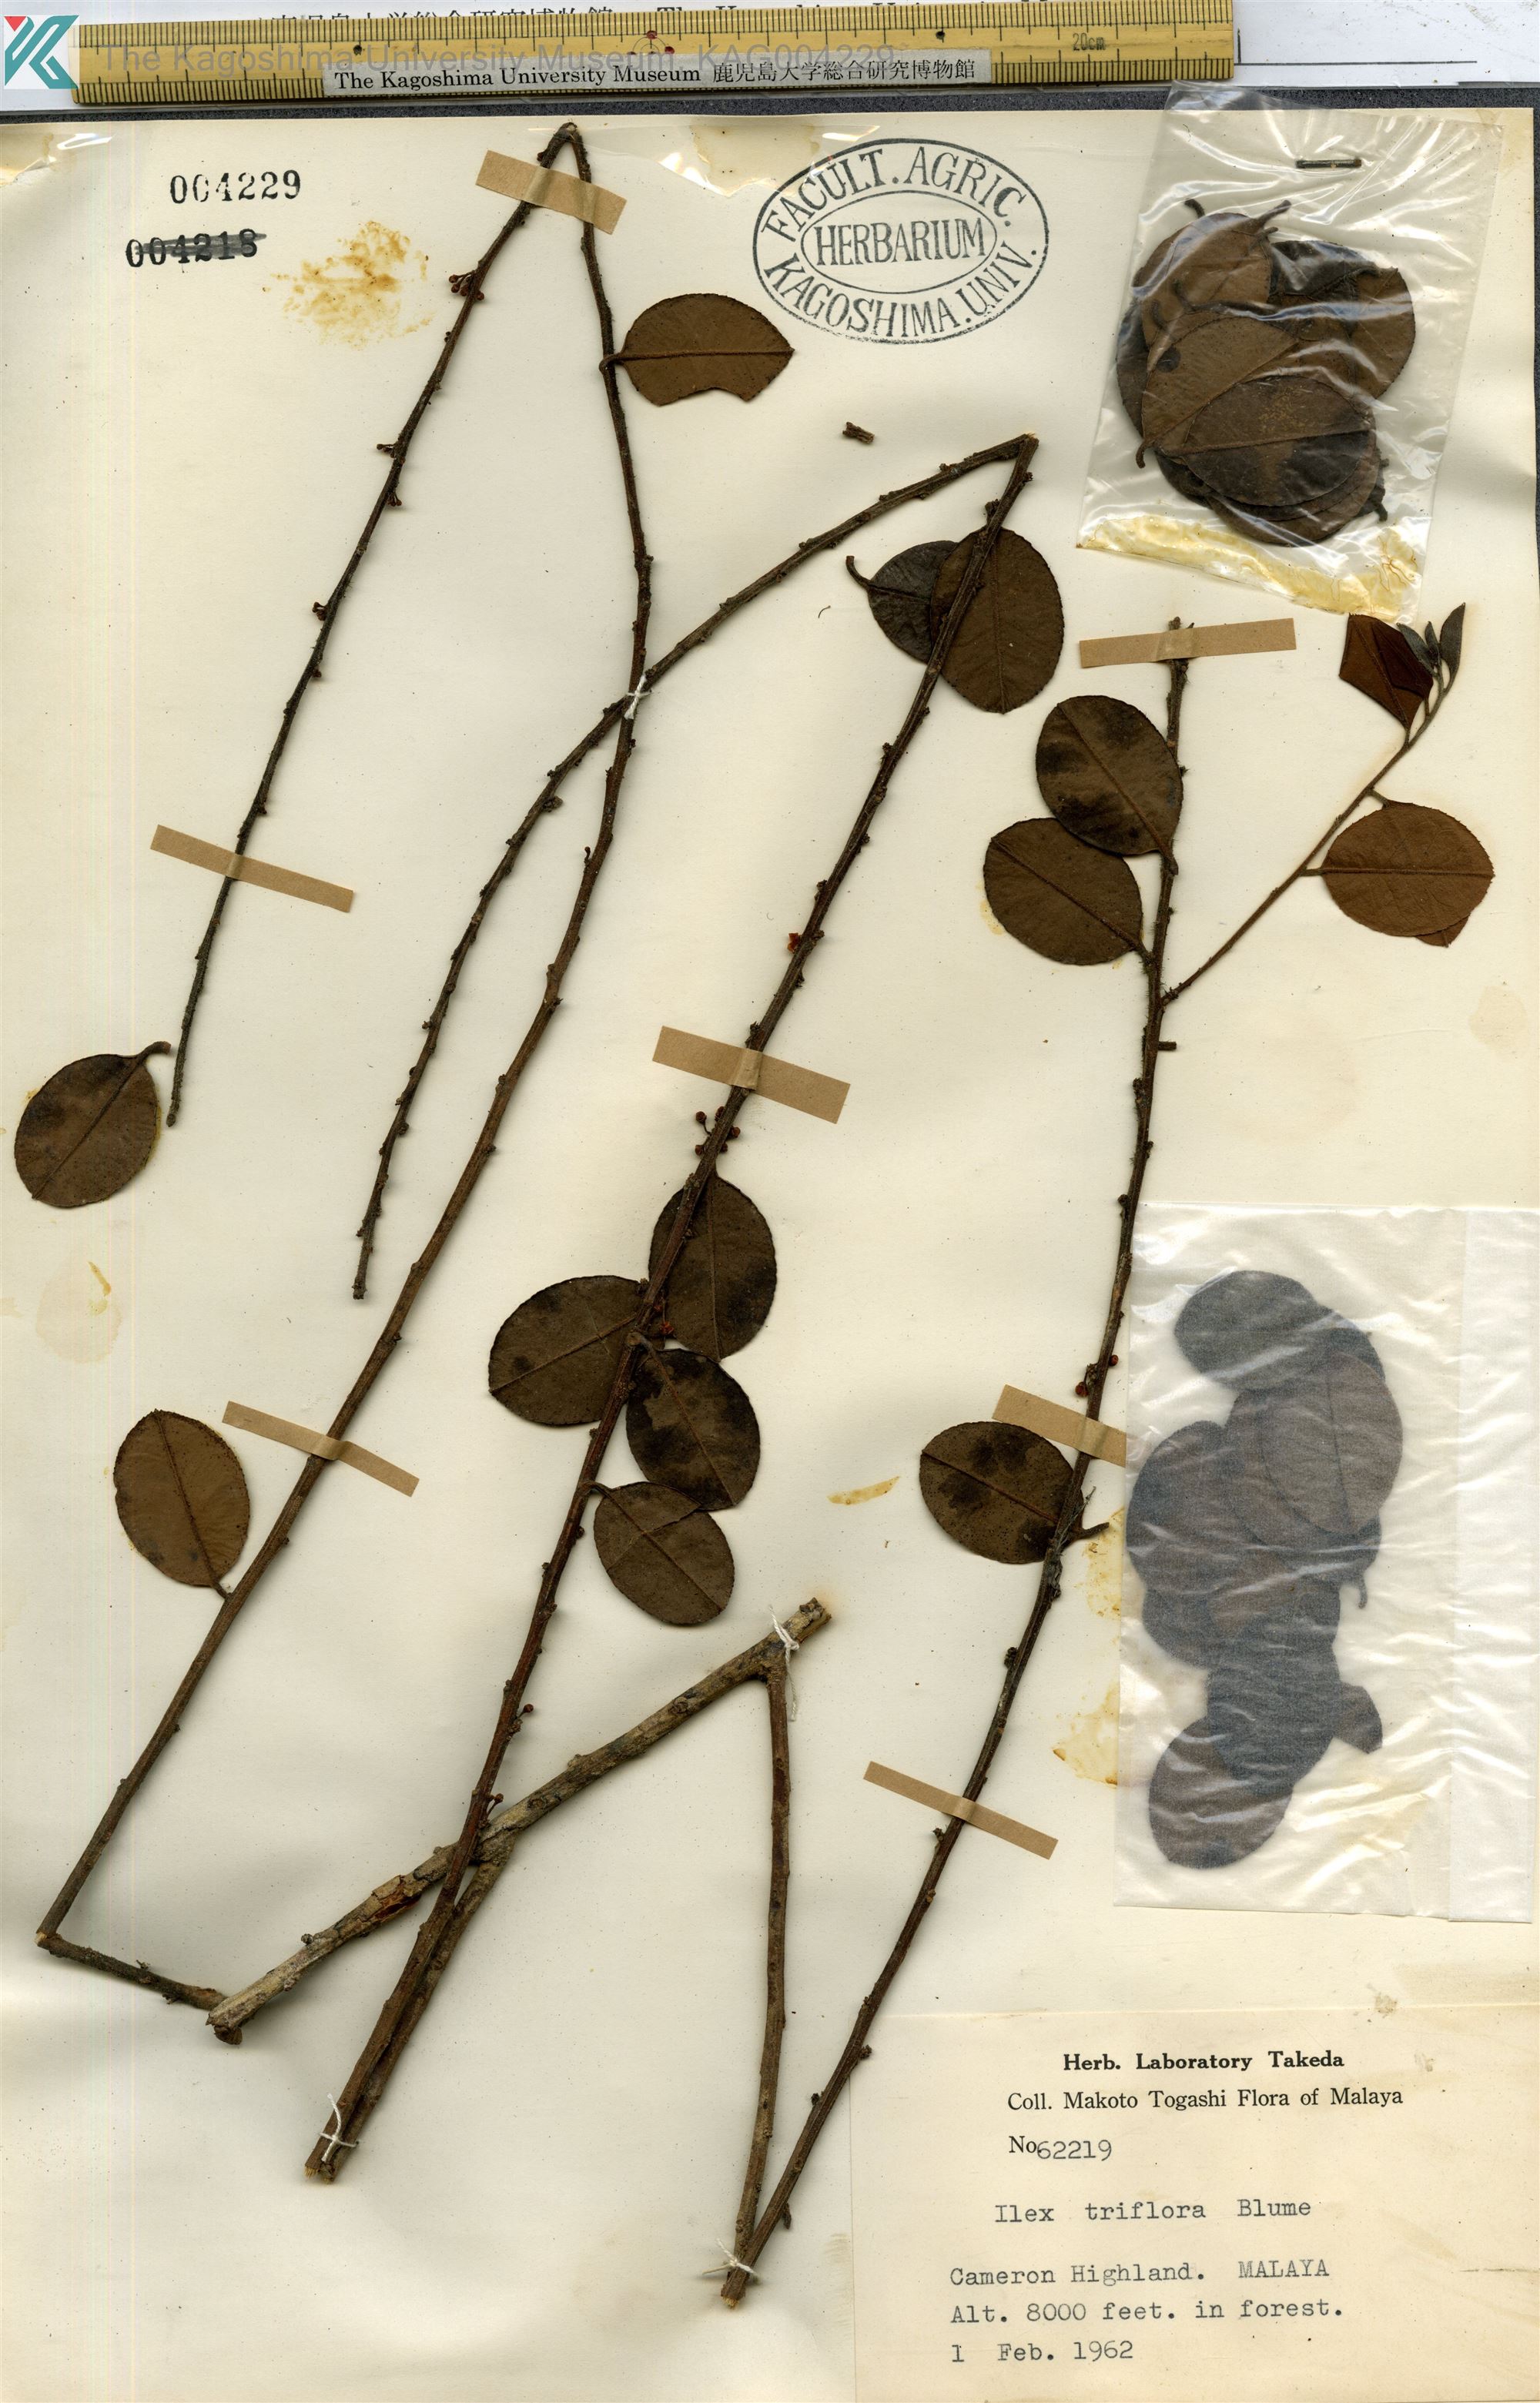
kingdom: Plantae
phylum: Tracheophyta
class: Magnoliopsida
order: Aquifoliales
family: Aquifoliaceae
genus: Ilex
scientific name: Ilex triflora
